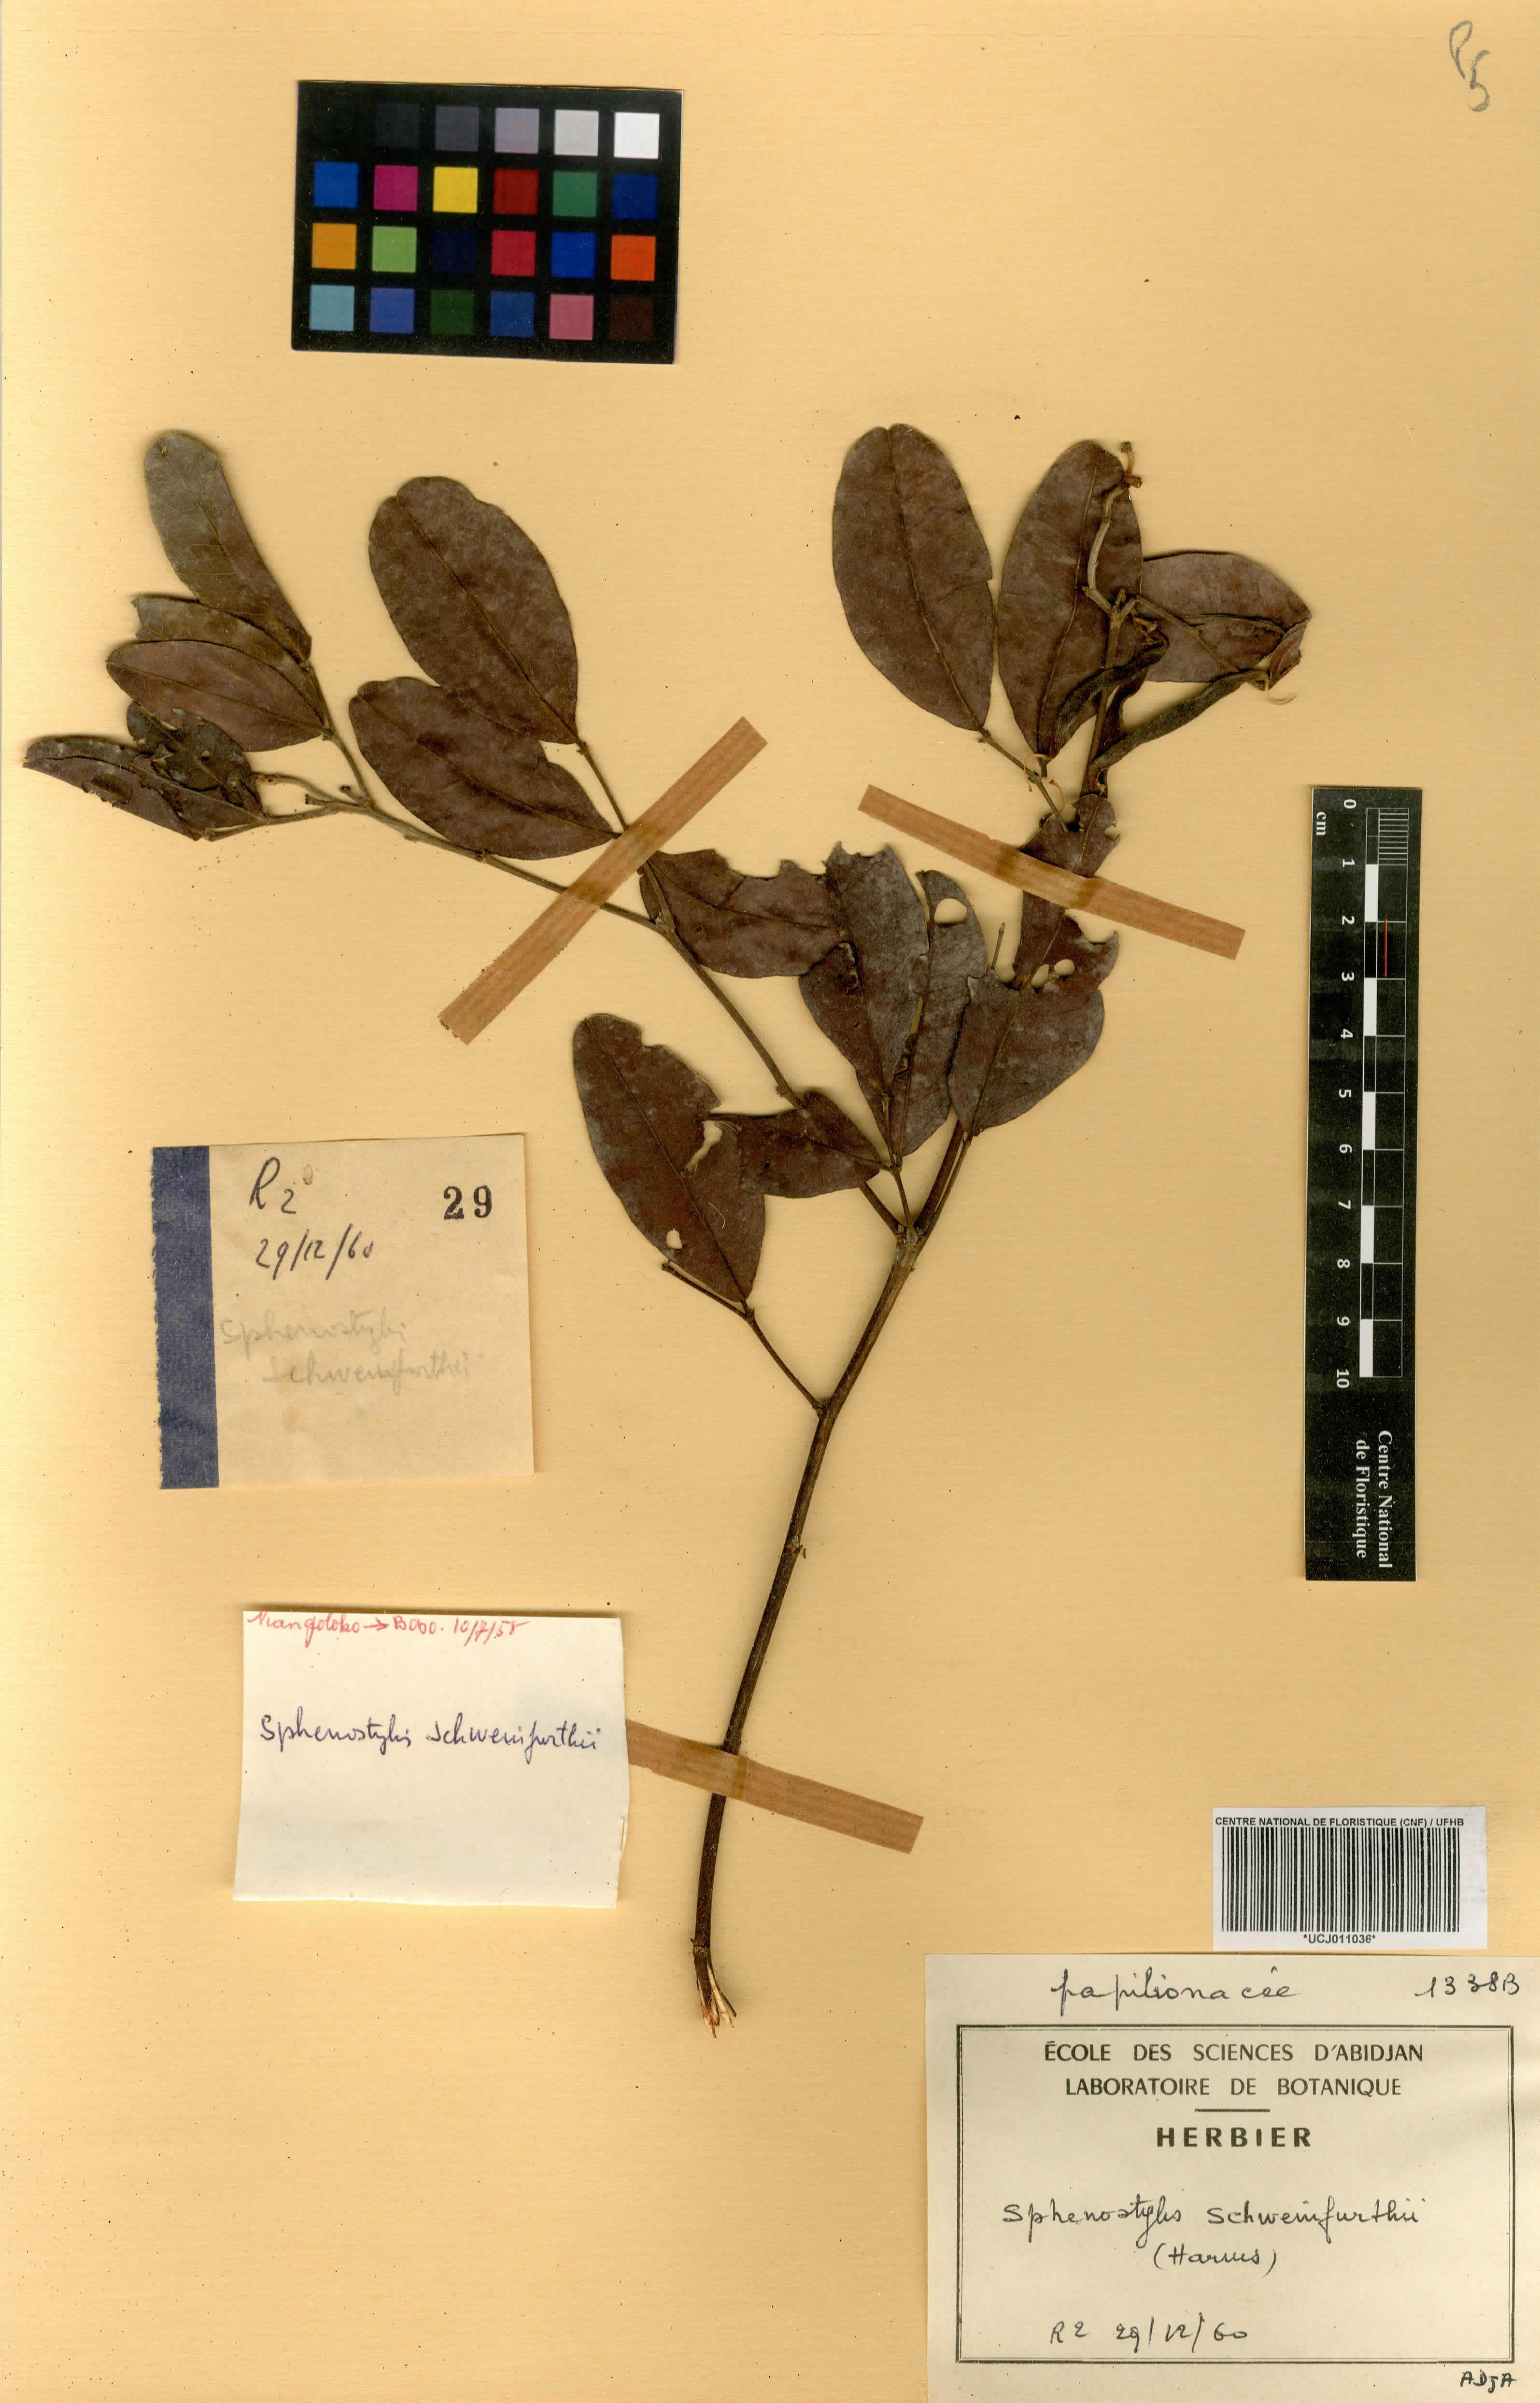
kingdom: Plantae
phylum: Tracheophyta
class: Magnoliopsida
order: Fabales
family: Fabaceae
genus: Sphenostylis
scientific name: Sphenostylis schweinfurthii
